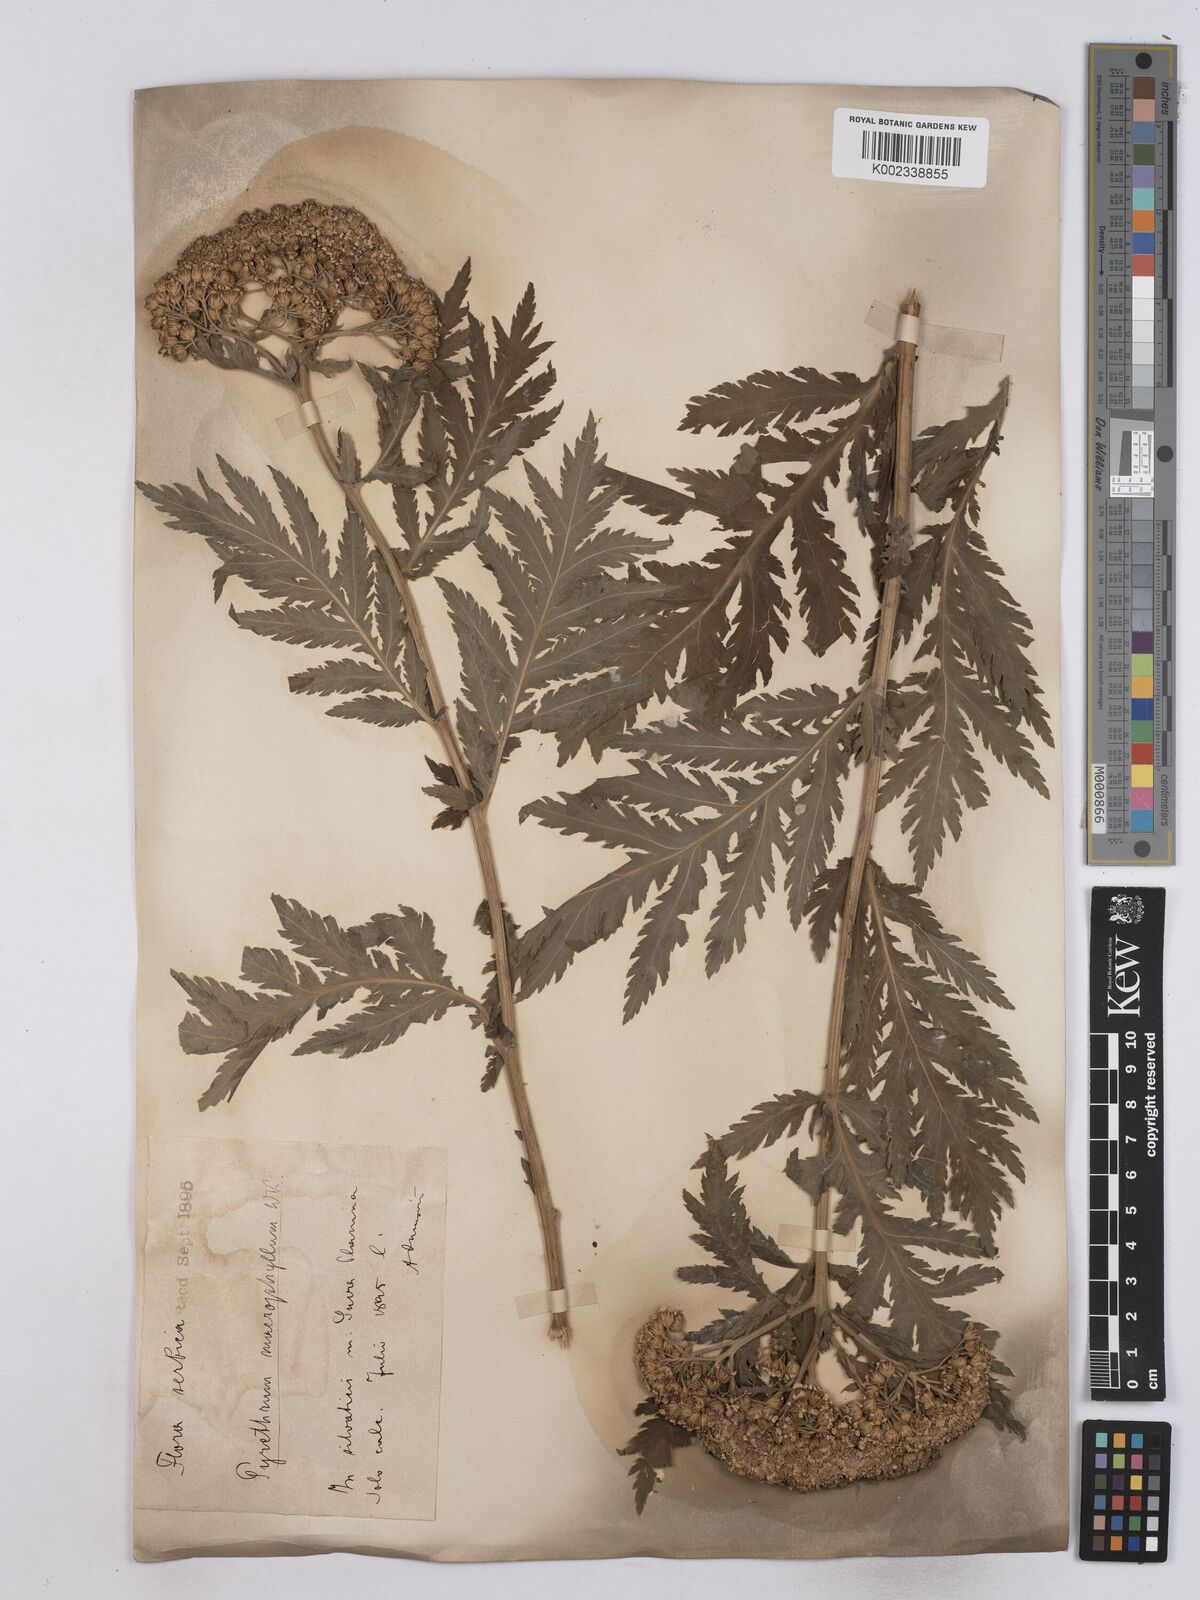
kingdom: Plantae
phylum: Tracheophyta
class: Magnoliopsida
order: Asterales
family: Asteraceae
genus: Tanacetum
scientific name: Tanacetum macrophyllum
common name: Rayed tansy
